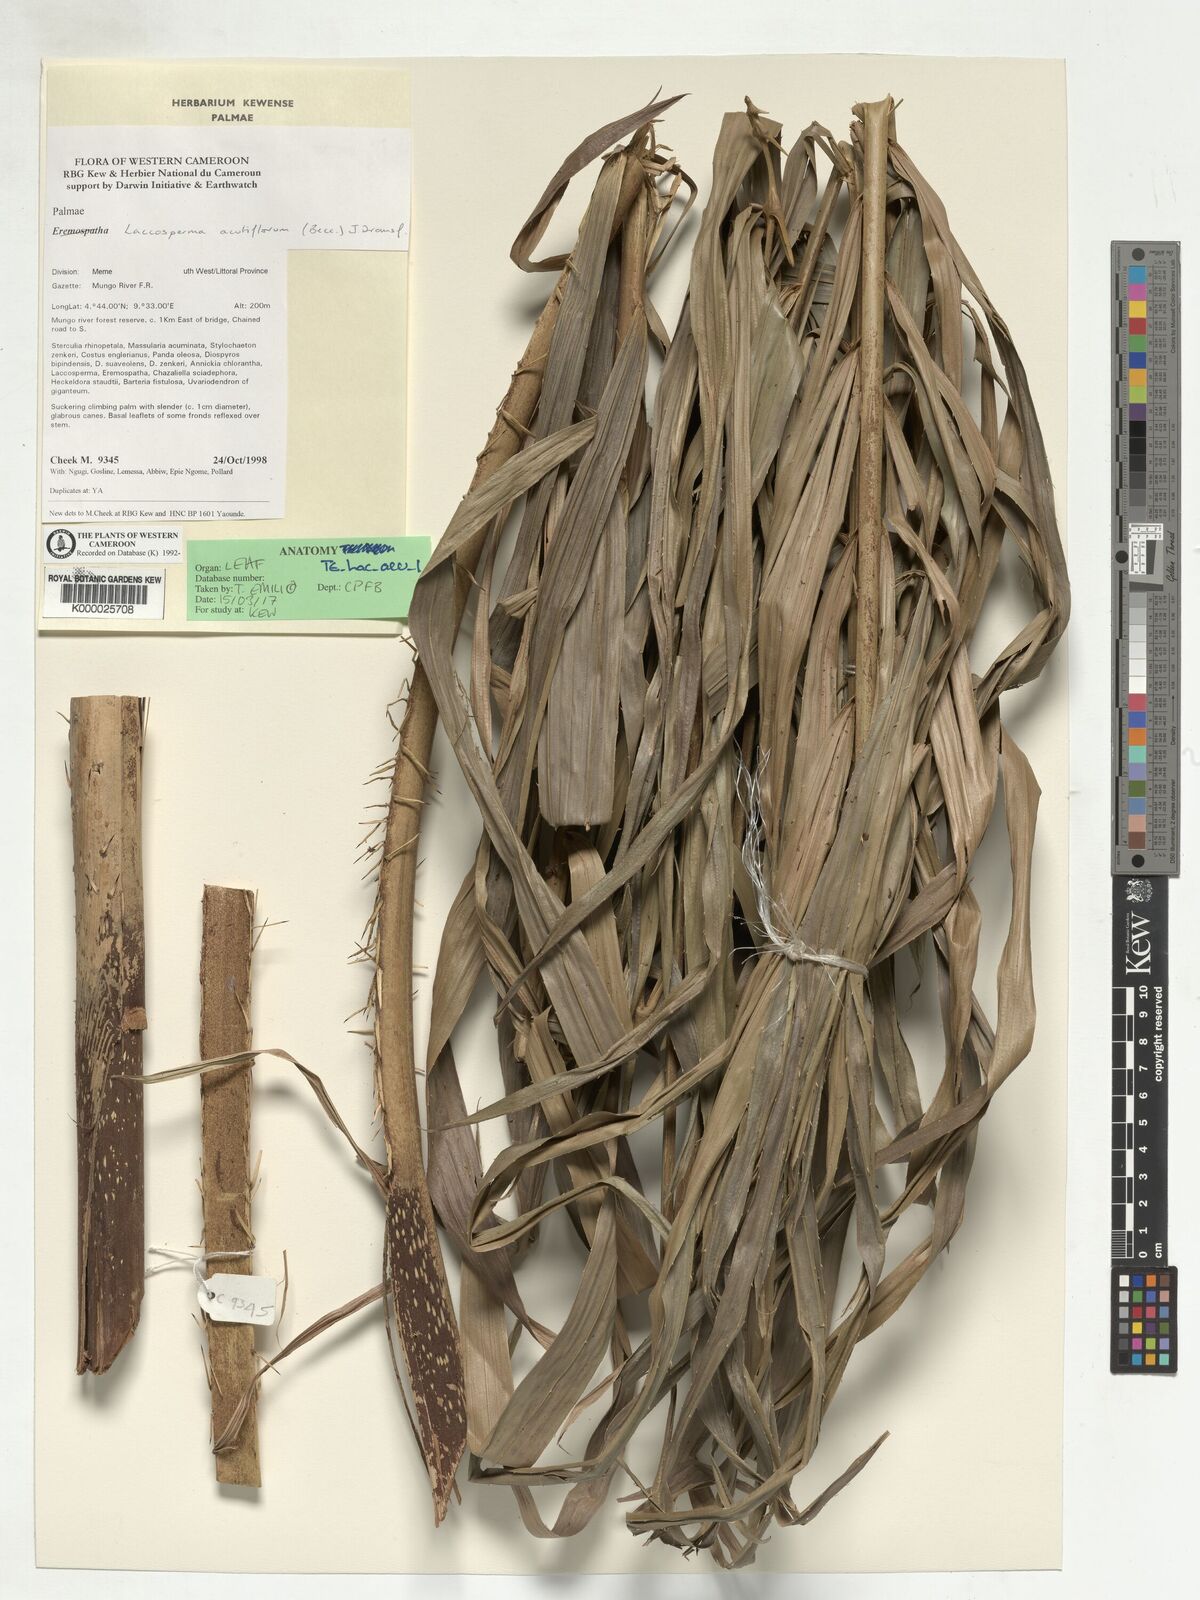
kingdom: Plantae
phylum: Tracheophyta
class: Liliopsida
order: Arecales
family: Arecaceae
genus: Laccosperma
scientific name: Laccosperma acutiflorum
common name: Rattan
